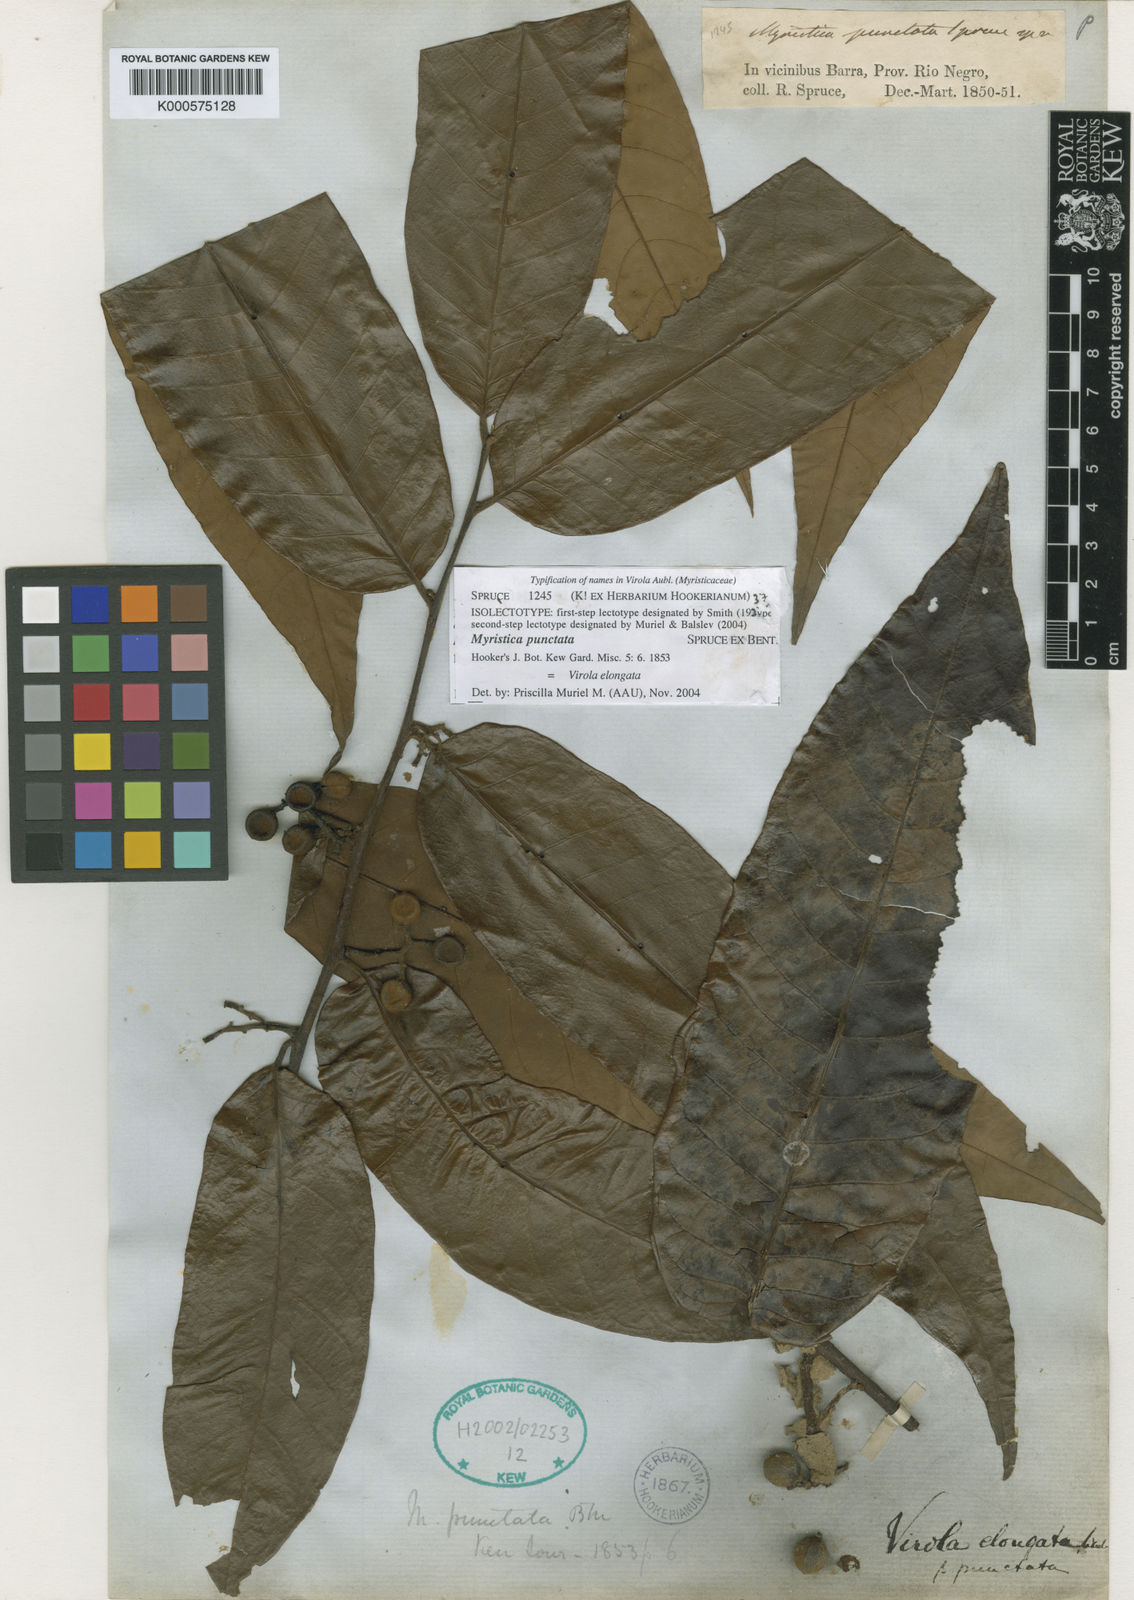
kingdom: Plantae
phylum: Tracheophyta
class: Magnoliopsida
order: Magnoliales
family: Myristicaceae
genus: Virola
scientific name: Virola elongata
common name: Sacred virola
